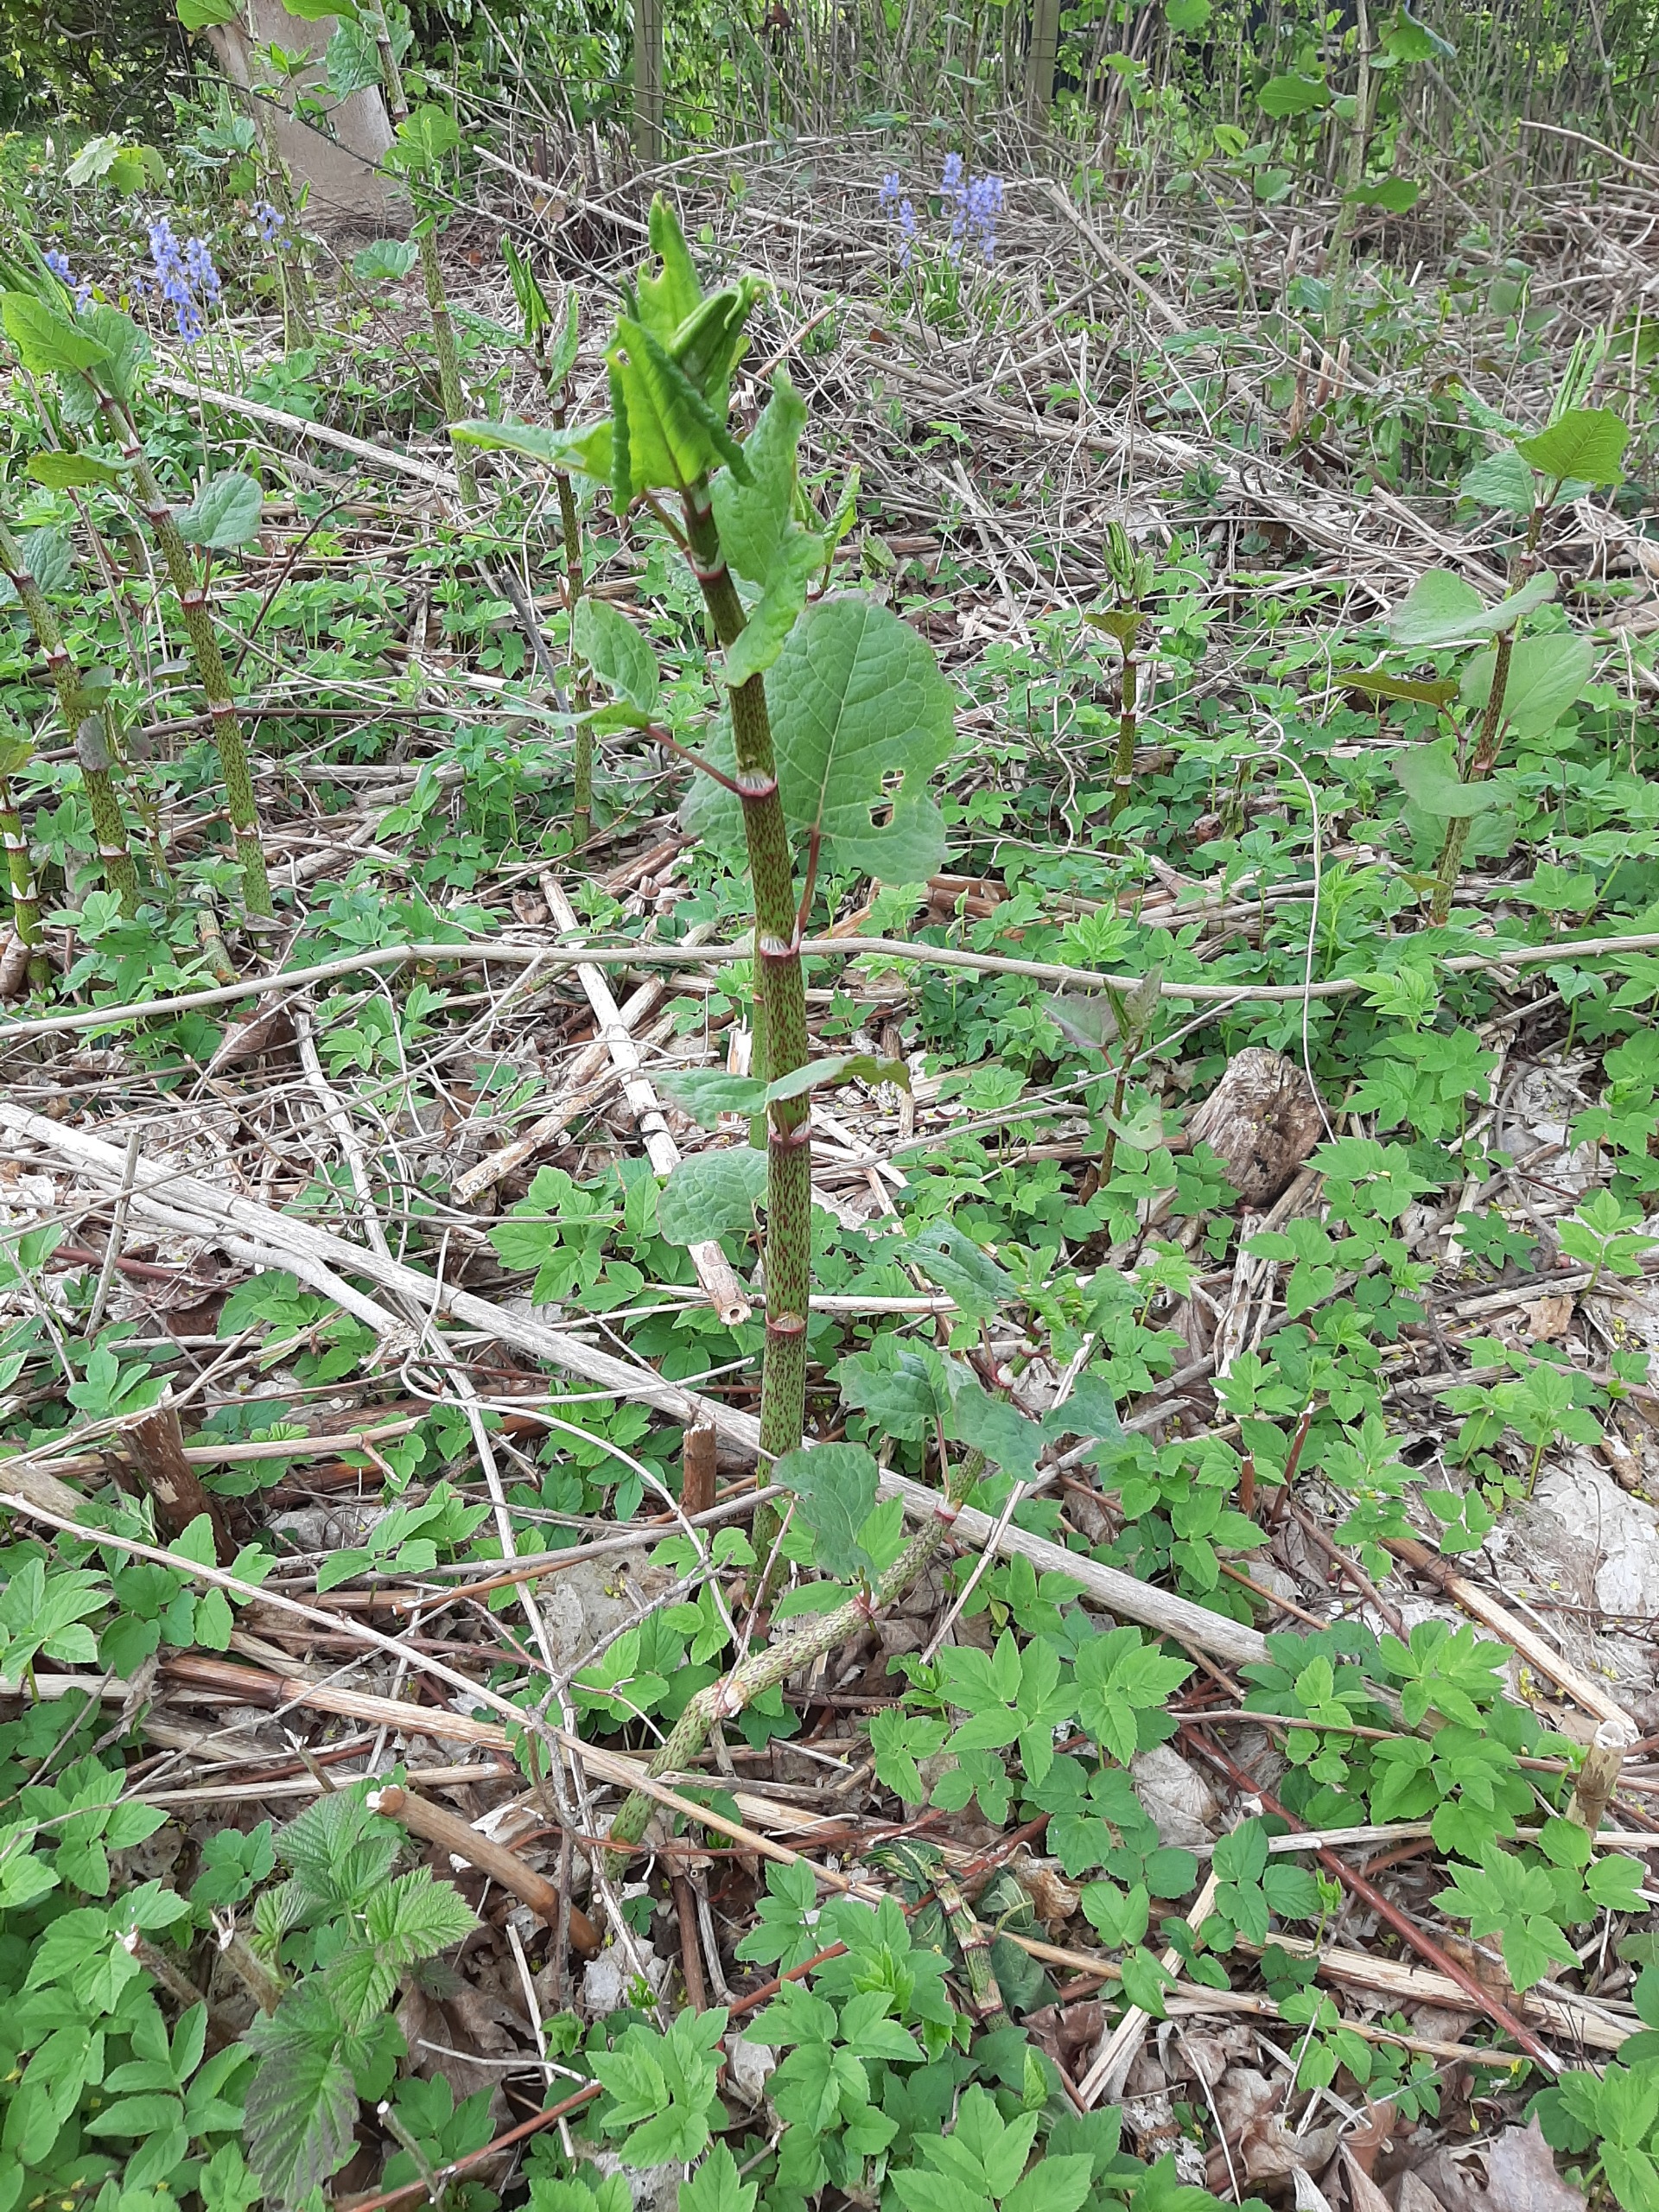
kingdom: Plantae
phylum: Tracheophyta
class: Magnoliopsida
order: Caryophyllales
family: Polygonaceae
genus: Reynoutria
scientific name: Reynoutria
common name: Pileurt (Reynoutria-slægten)
